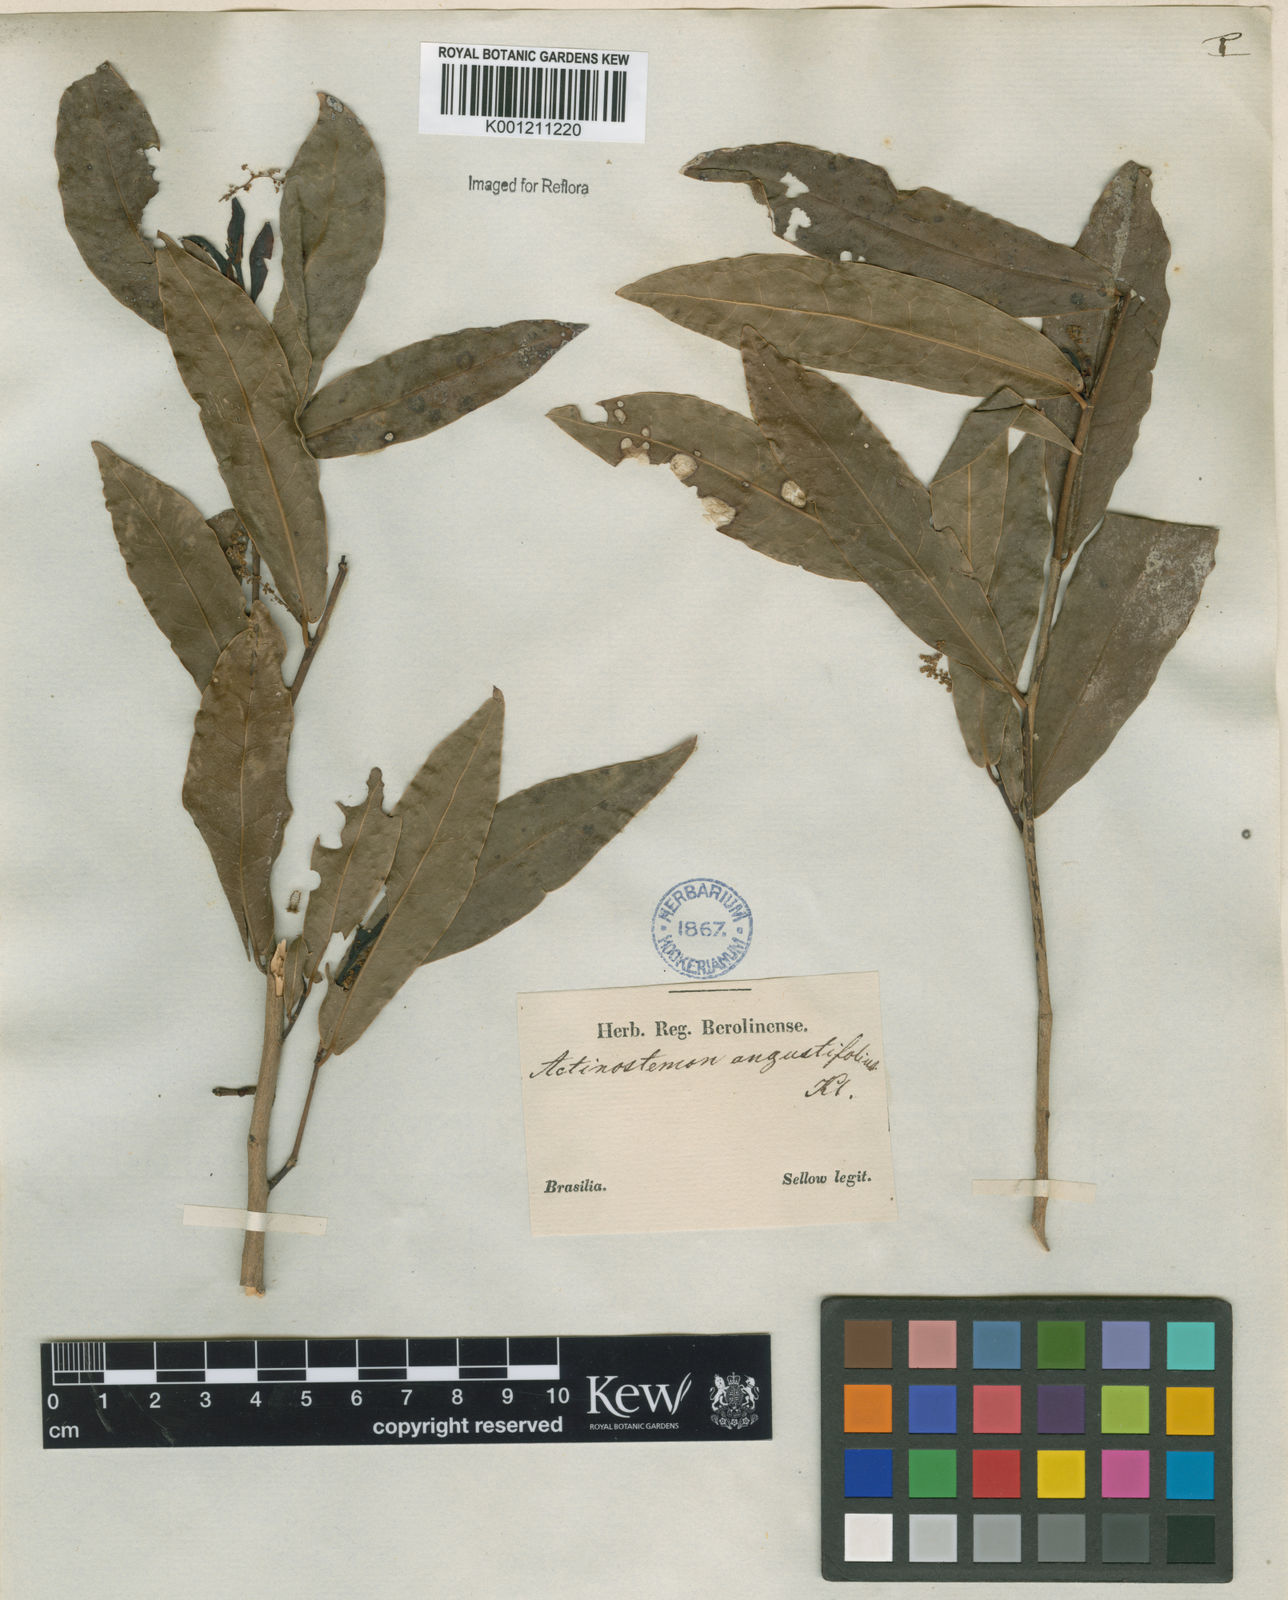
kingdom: Plantae
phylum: Tracheophyta
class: Magnoliopsida
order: Malpighiales
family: Euphorbiaceae
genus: Actinostemon
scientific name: Actinostemon
